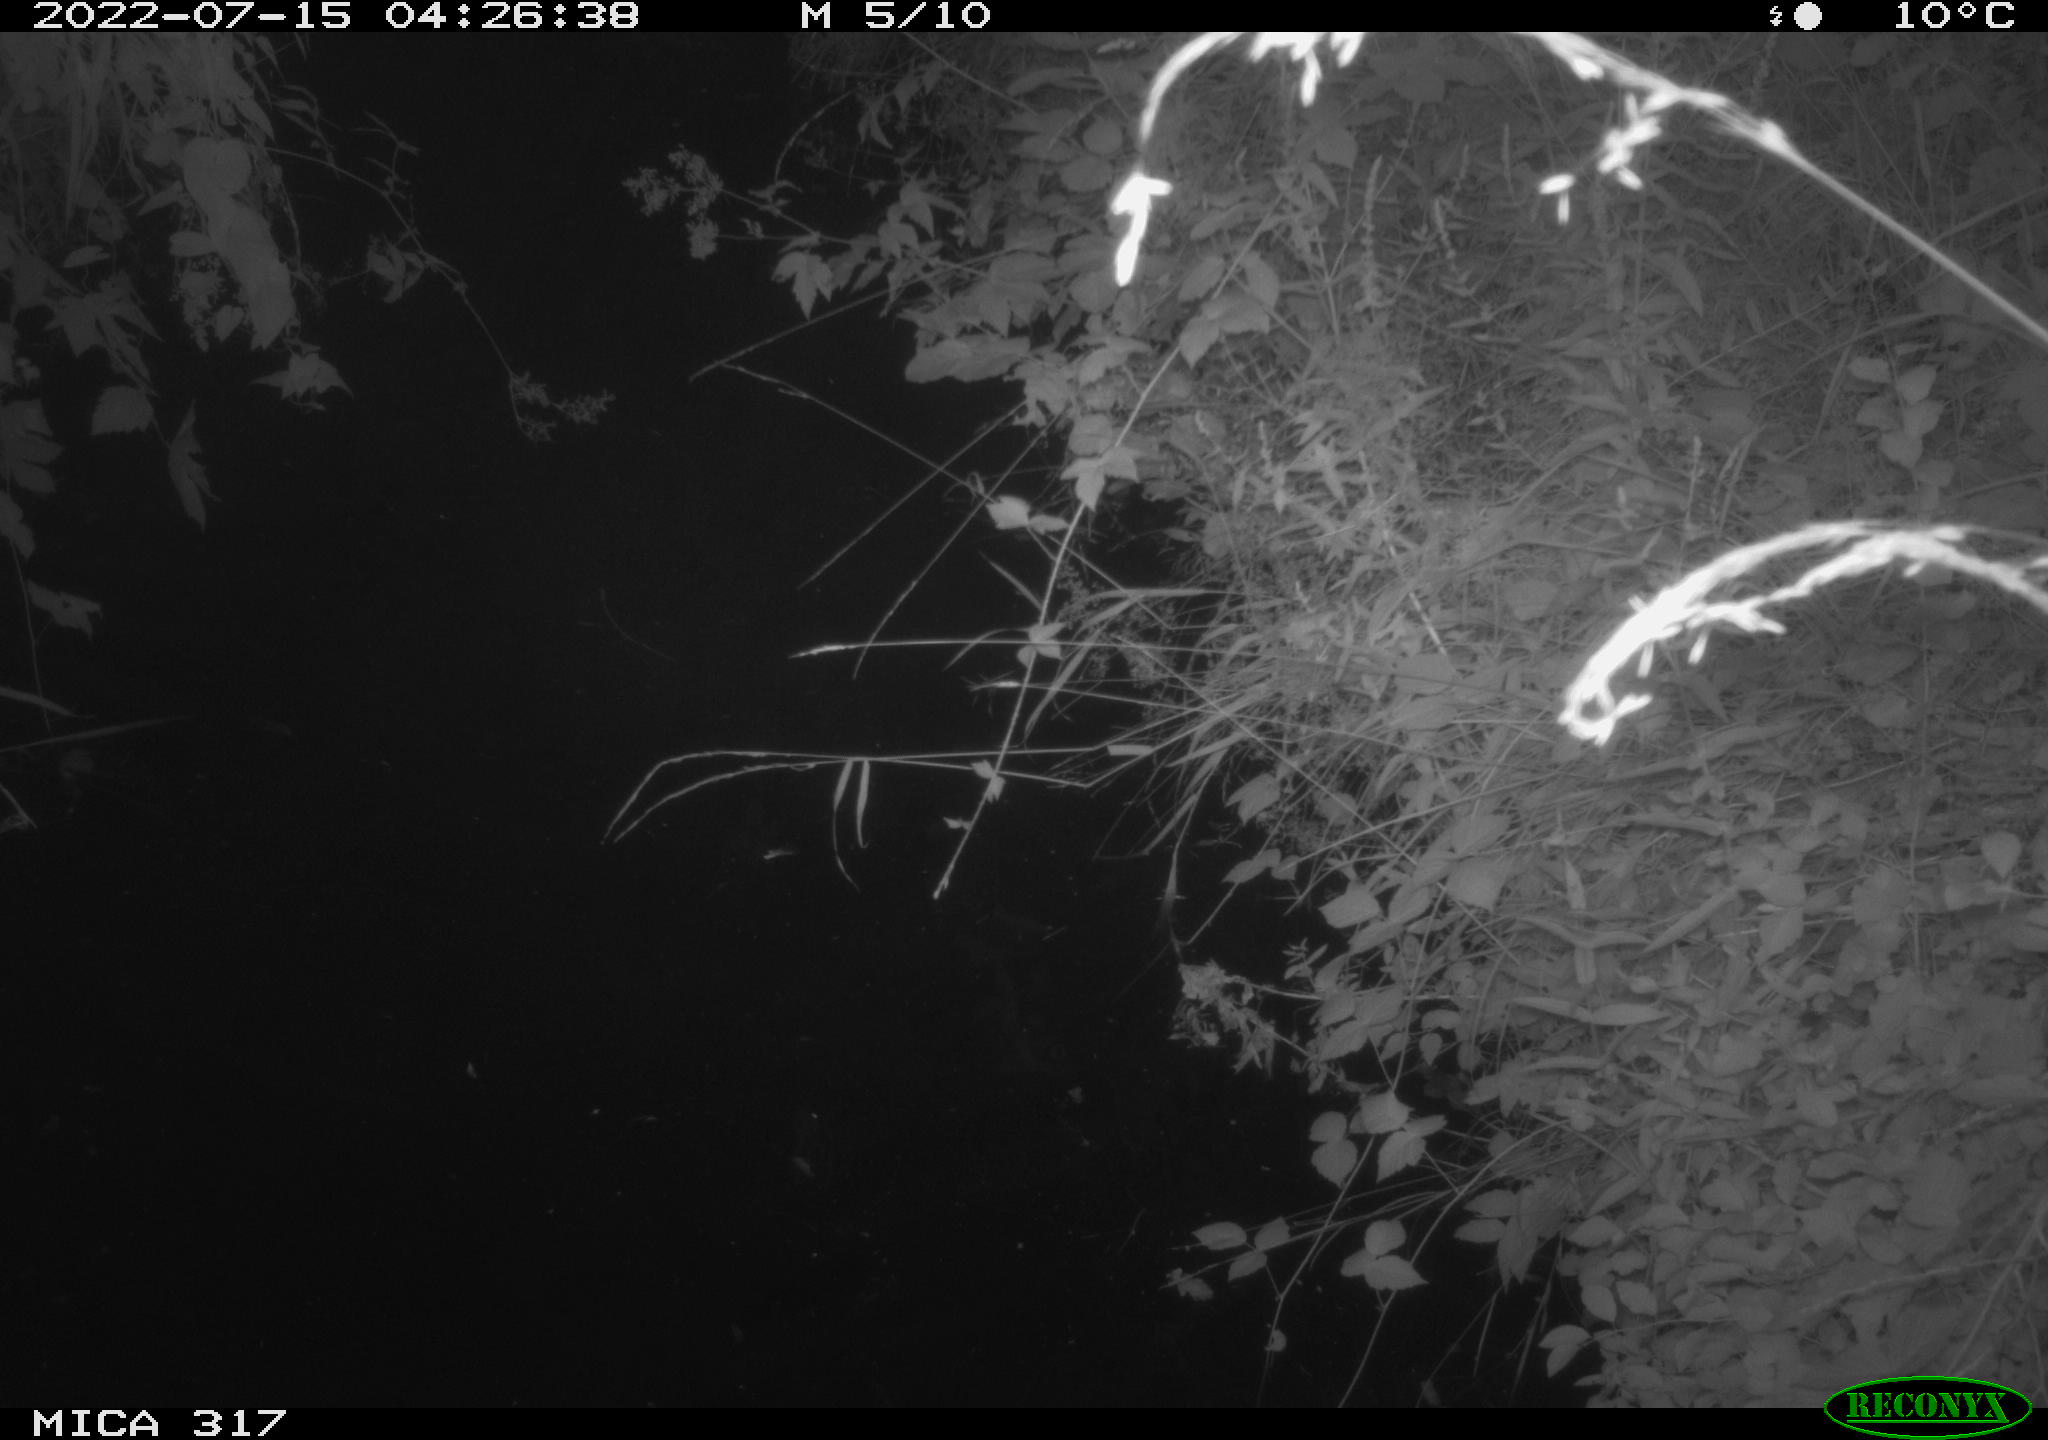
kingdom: Animalia
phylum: Chordata
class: Aves
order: Anseriformes
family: Anatidae
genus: Anas
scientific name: Anas platyrhynchos
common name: Mallard
